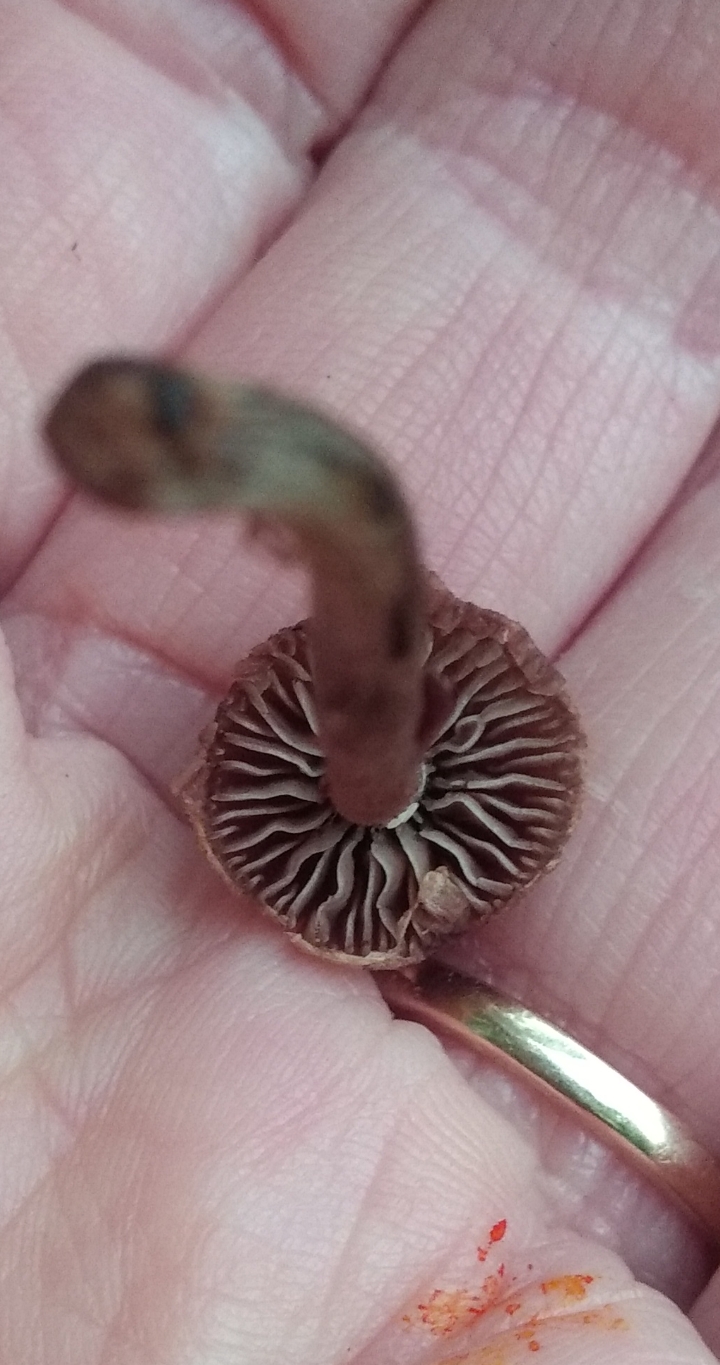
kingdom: Fungi
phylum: Basidiomycota
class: Agaricomycetes
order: Agaricales
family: Cortinariaceae
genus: Cortinarius
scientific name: Cortinarius
